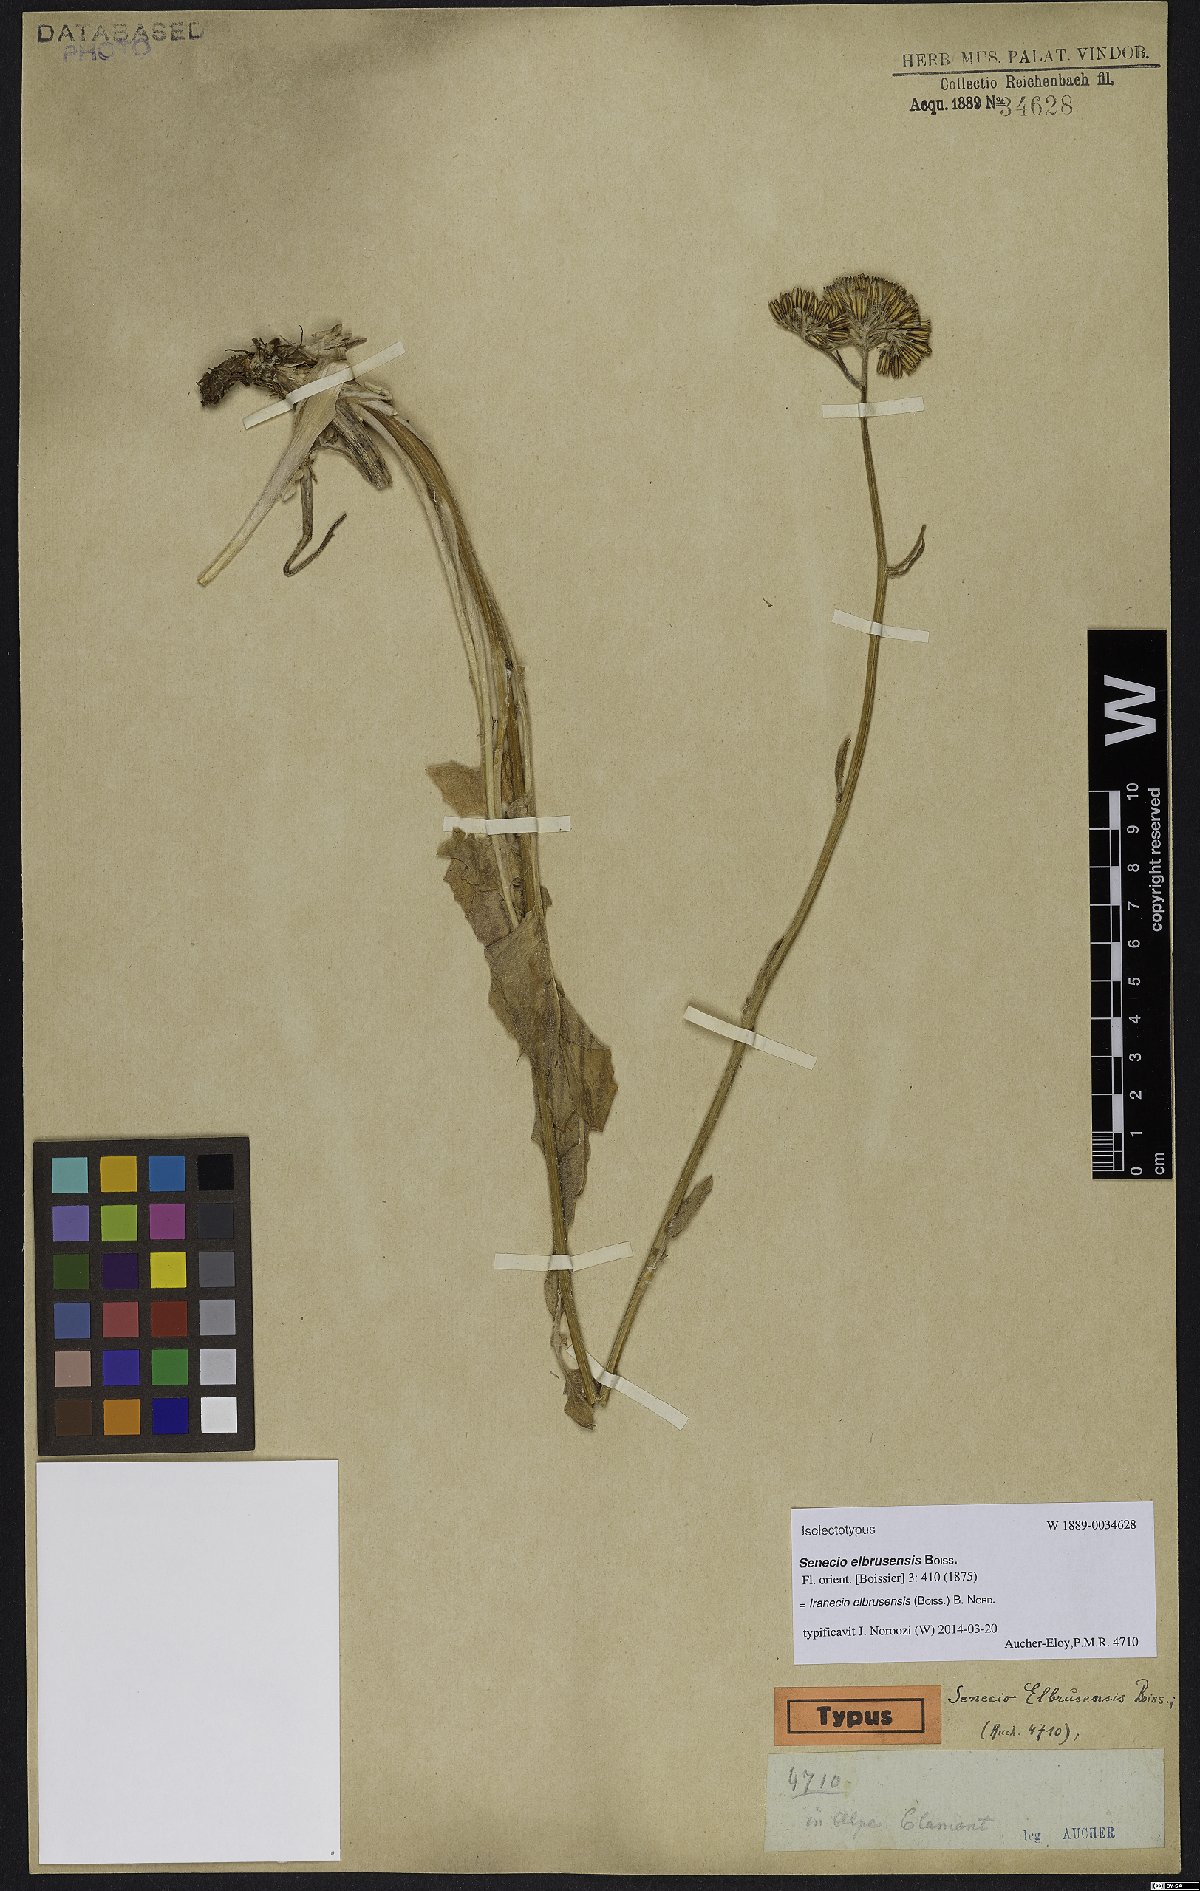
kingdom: Plantae
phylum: Tracheophyta
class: Magnoliopsida
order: Asterales
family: Asteraceae
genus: Iranecio
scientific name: Iranecio elbrusensis
